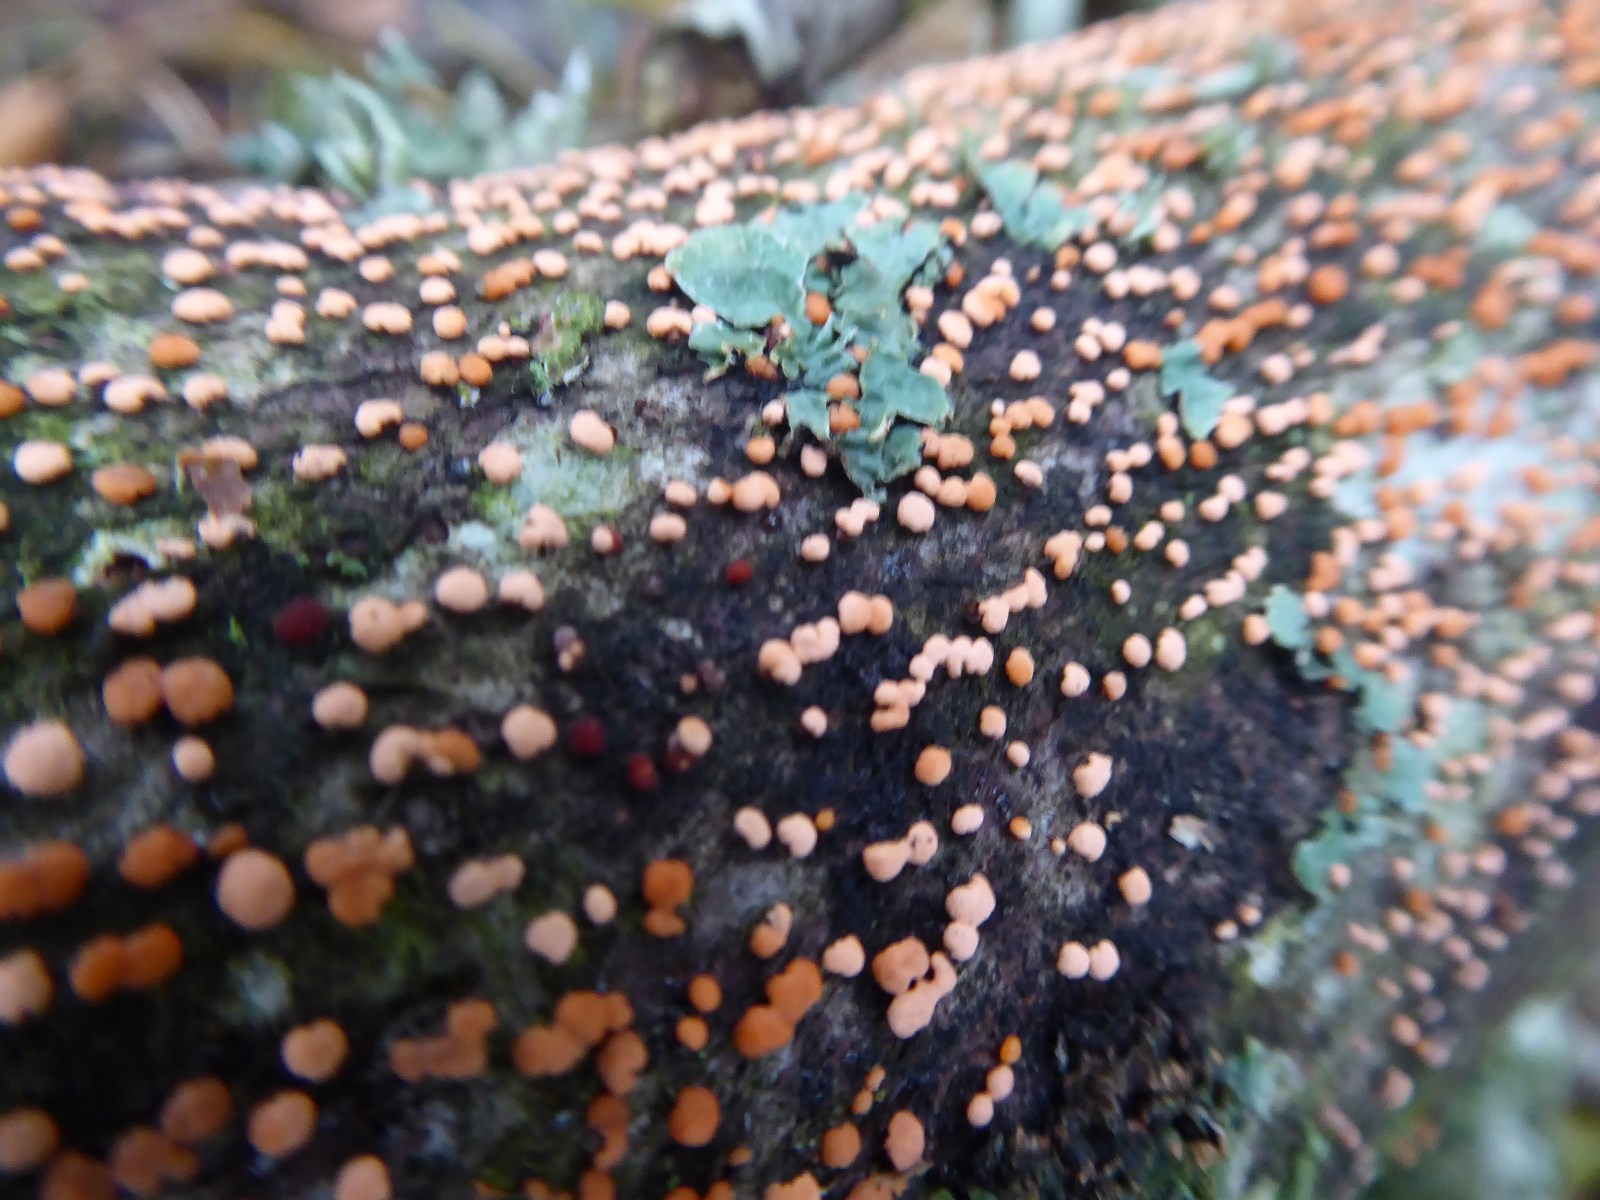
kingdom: Fungi
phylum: Ascomycota
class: Sordariomycetes
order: Hypocreales
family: Nectriaceae
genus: Nectria
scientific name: Nectria cinnabarina
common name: almindelig cinnobersvamp
